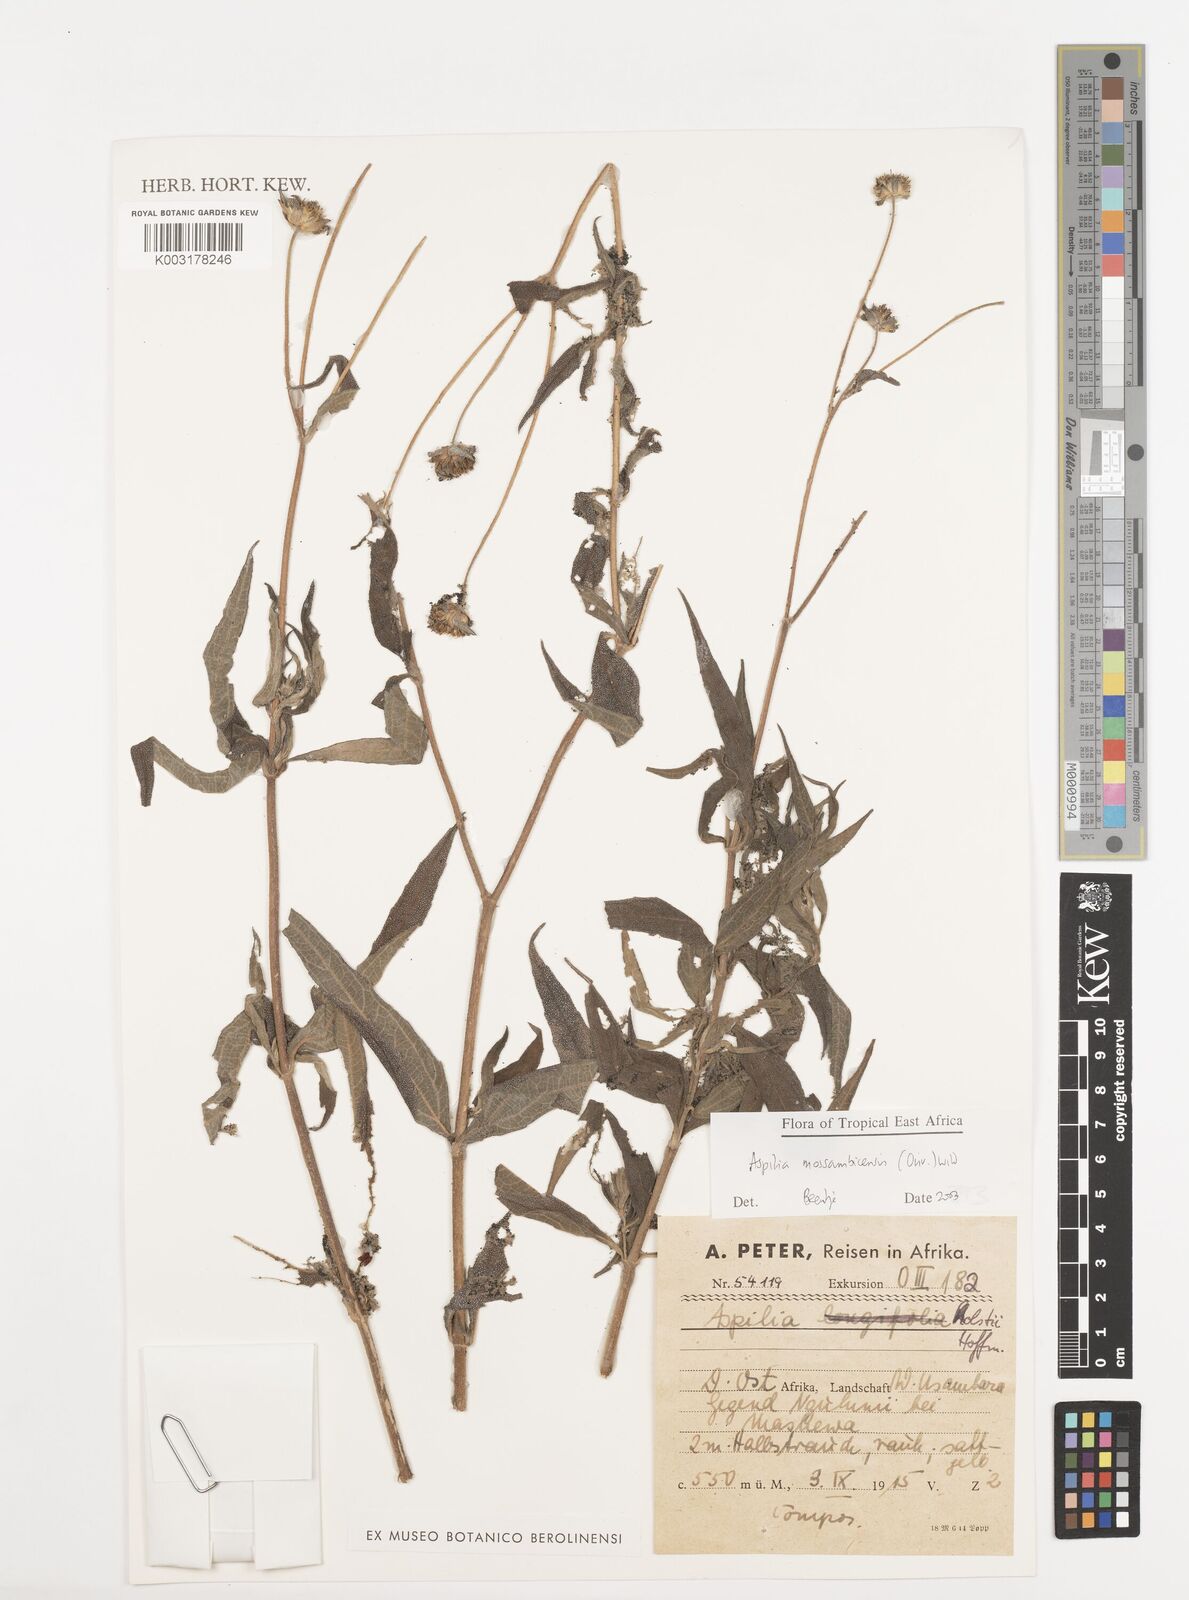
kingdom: Plantae
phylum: Tracheophyta
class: Magnoliopsida
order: Asterales
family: Asteraceae
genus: Aspilia
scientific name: Aspilia mossambicensis
